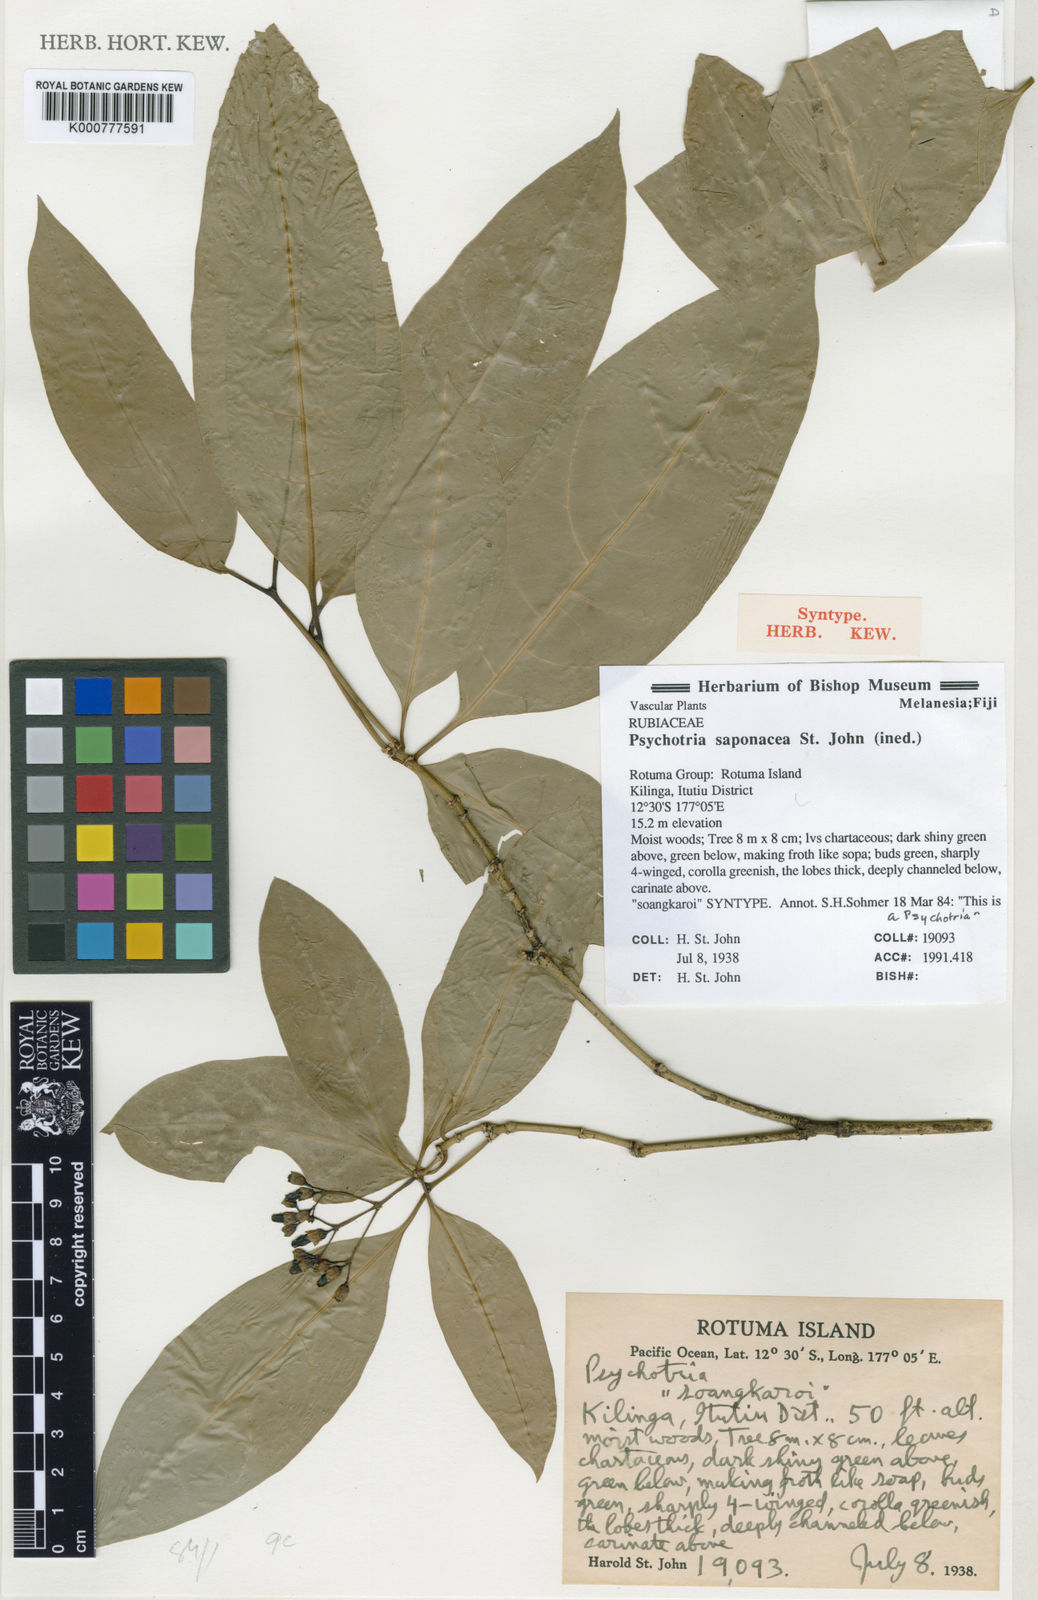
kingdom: Plantae
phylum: Tracheophyta
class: Magnoliopsida
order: Gentianales
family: Rubiaceae
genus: Psychotria
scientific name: Psychotria
